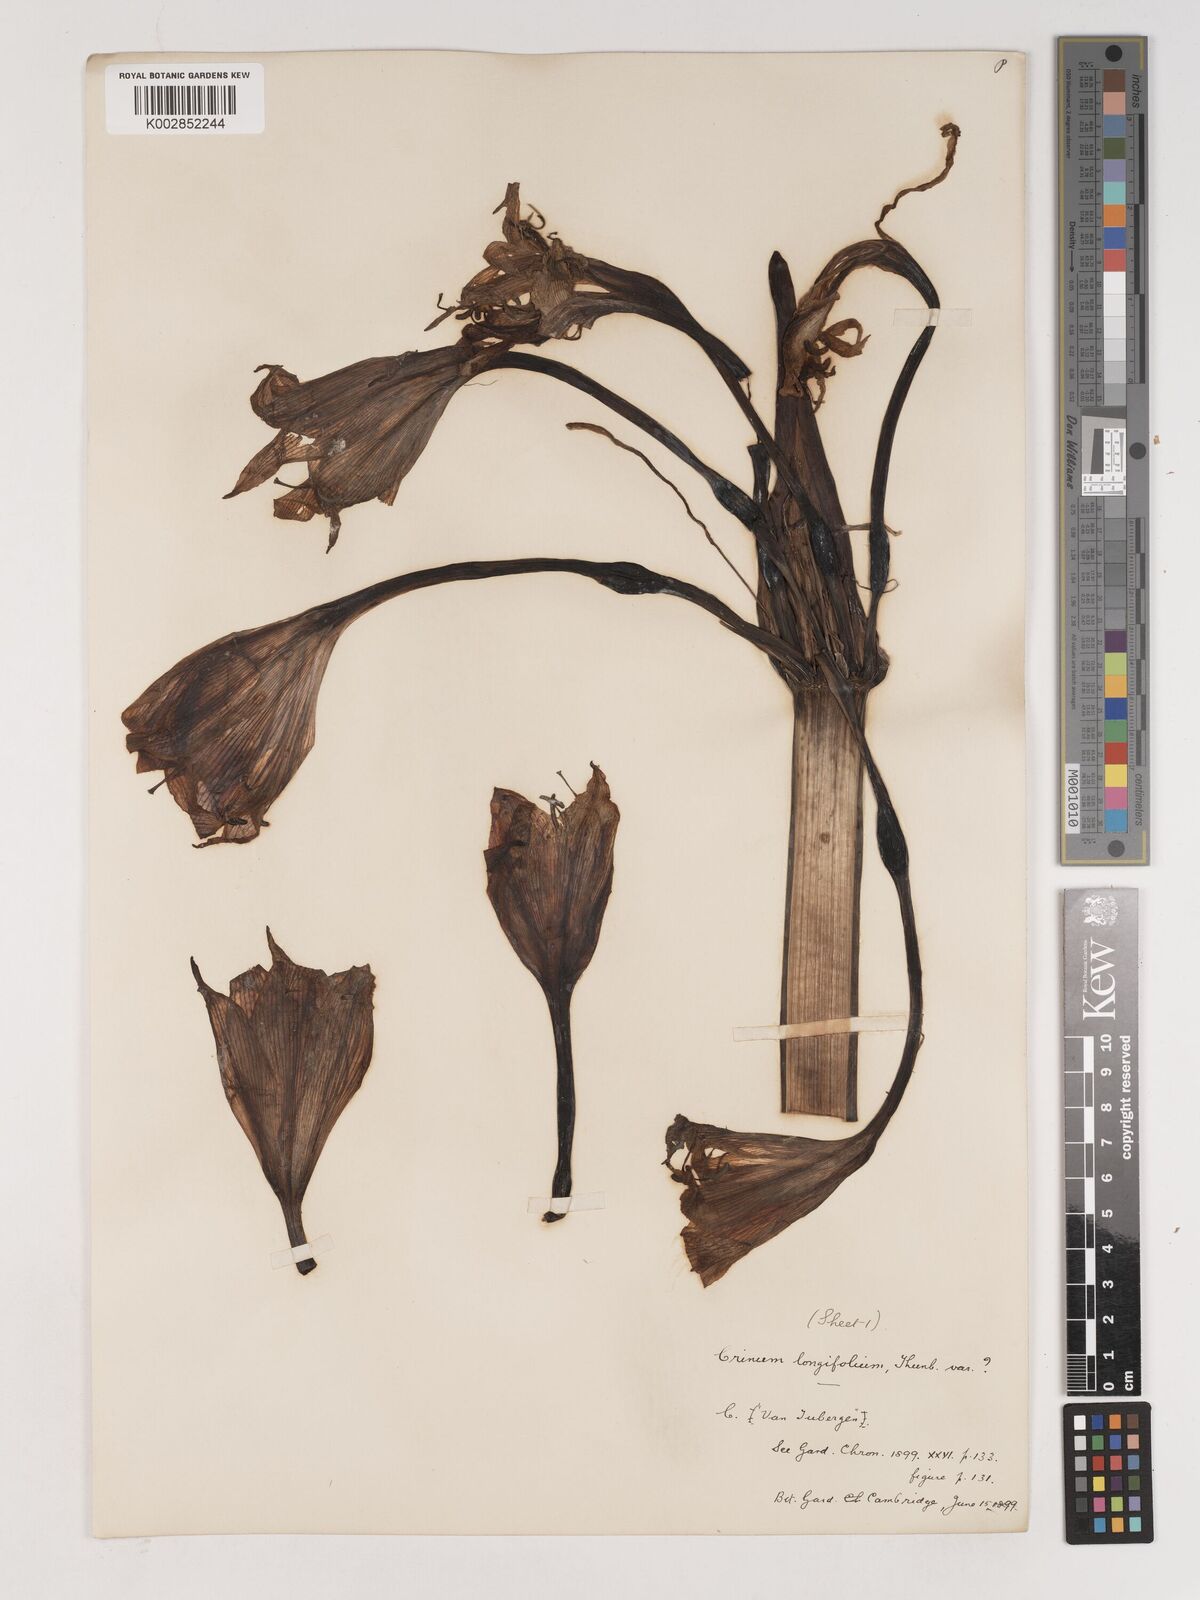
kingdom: Plantae
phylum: Tracheophyta
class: Liliopsida
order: Asparagales
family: Amaryllidaceae
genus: Ammocharis
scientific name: Ammocharis longifolia
